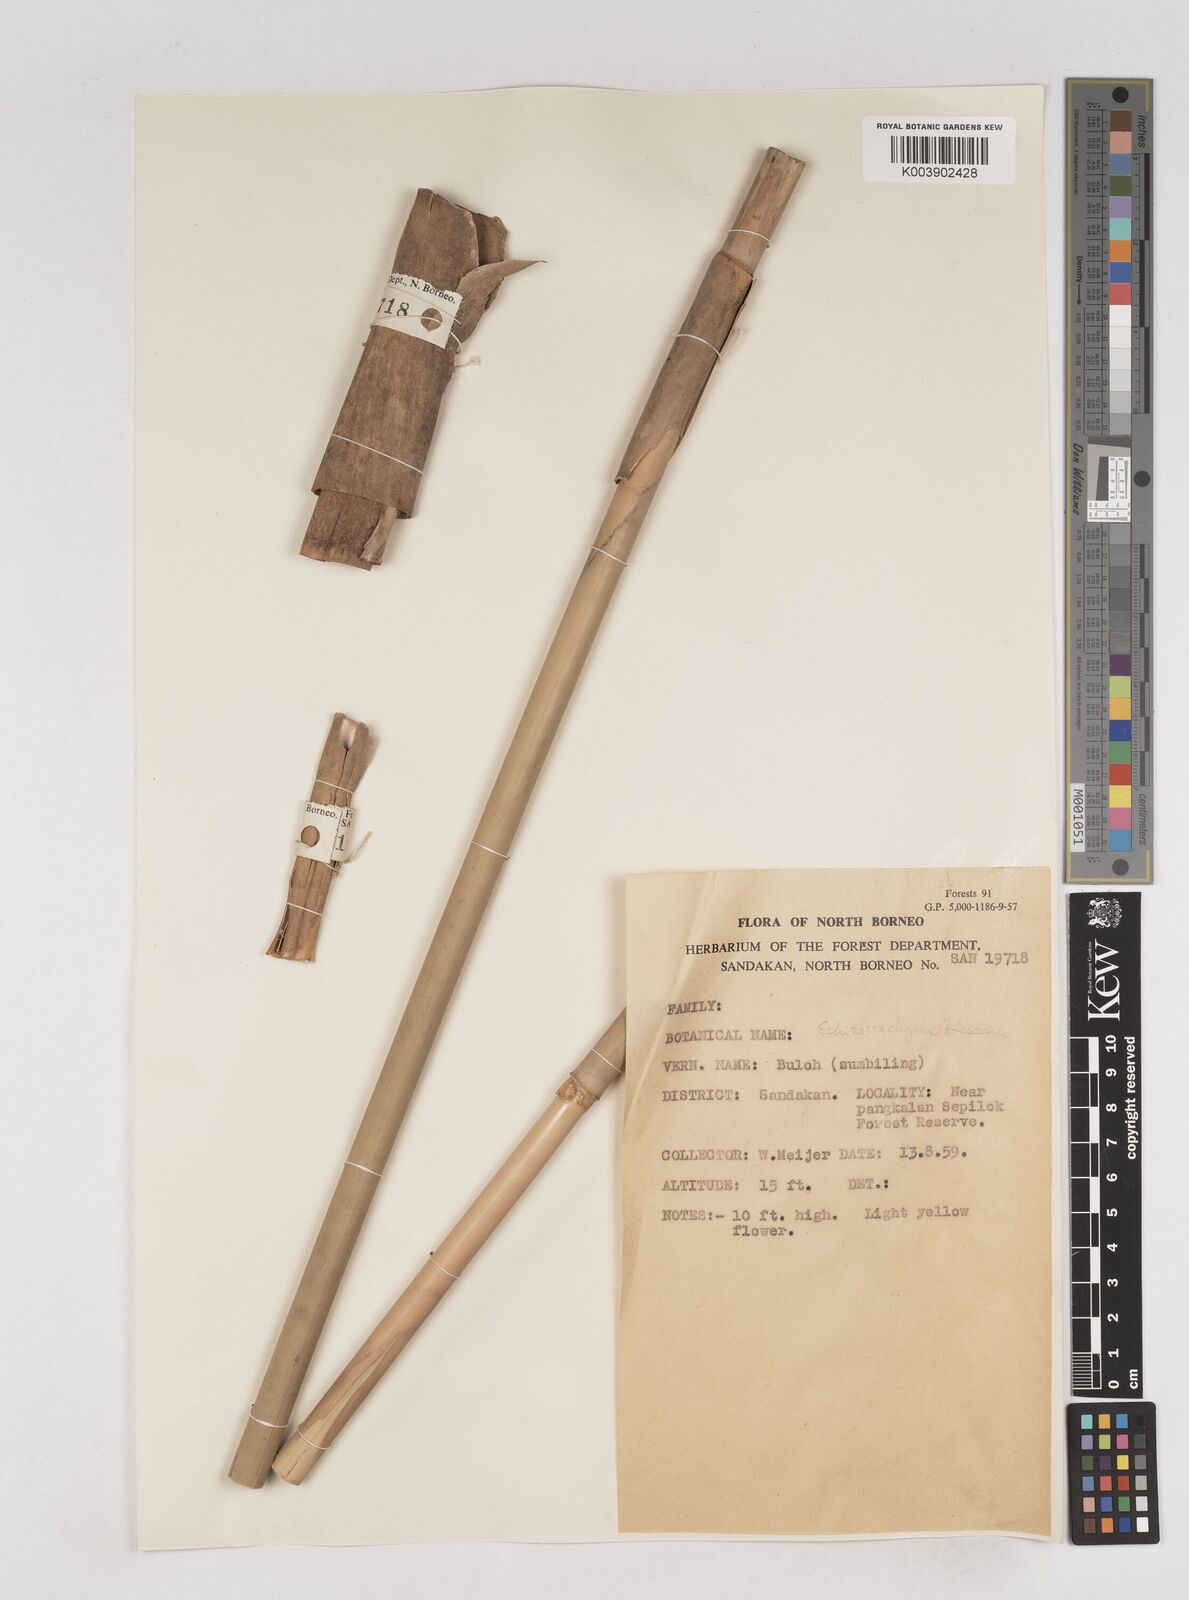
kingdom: Plantae
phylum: Tracheophyta
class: Liliopsida
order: Poales
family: Poaceae
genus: Schizostachyum
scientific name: Schizostachyum
